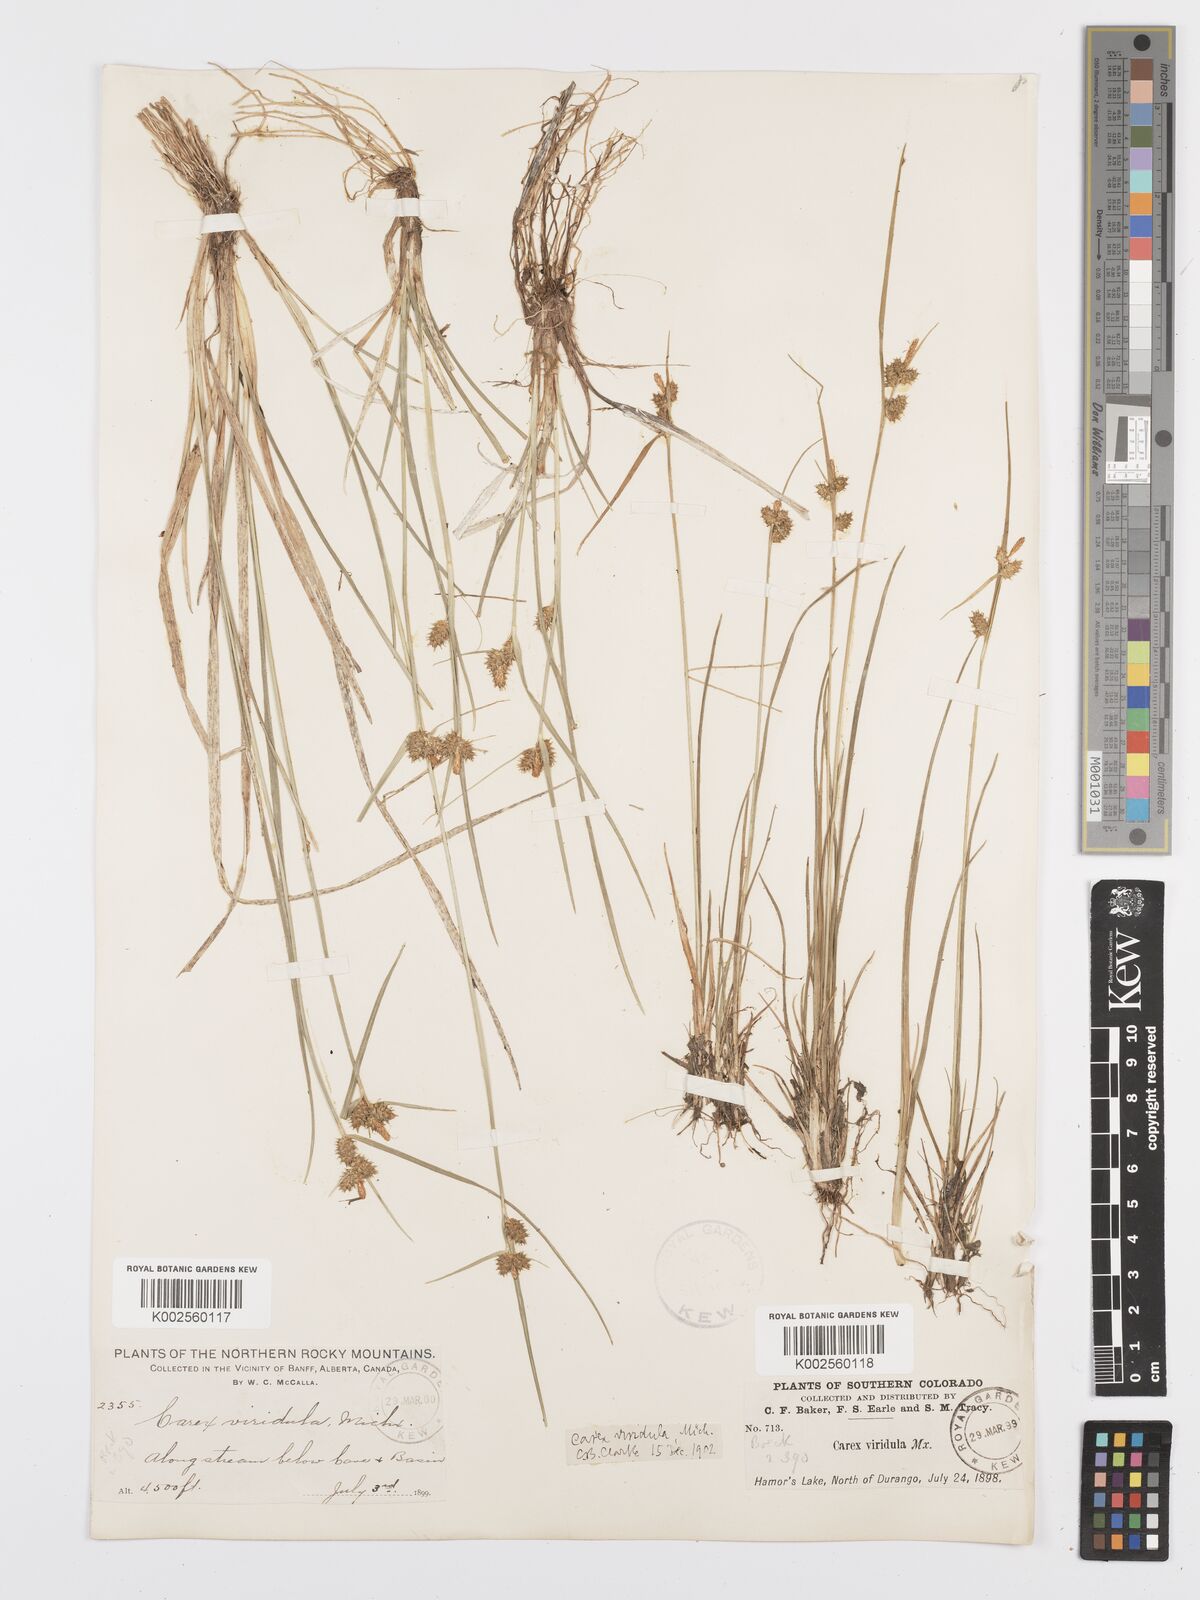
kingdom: Plantae
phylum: Tracheophyta
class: Liliopsida
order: Poales
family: Cyperaceae
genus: Carex
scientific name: Carex oederi
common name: Common & small-fruited yellow-sedge
